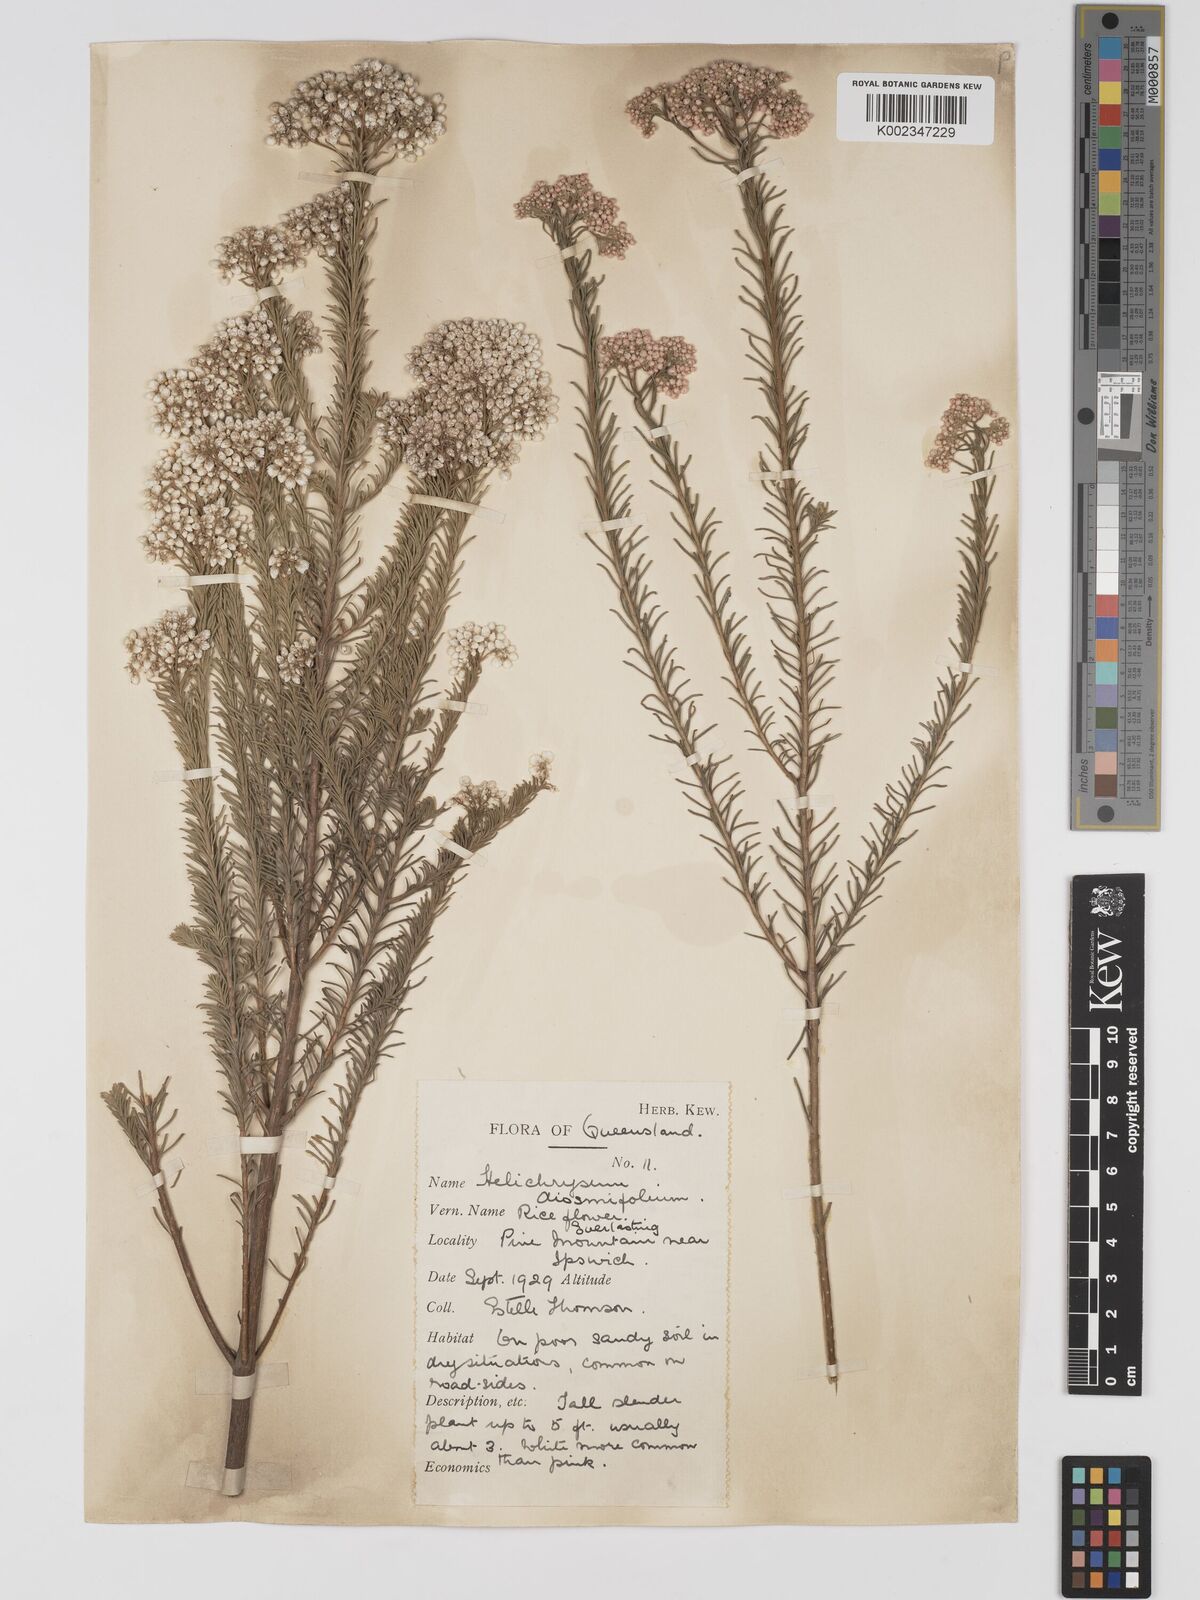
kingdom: Plantae
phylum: Tracheophyta
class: Magnoliopsida
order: Asterales
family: Asteraceae
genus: Ozothamnus
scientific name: Ozothamnus diosmifolius
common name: White-dogwood
